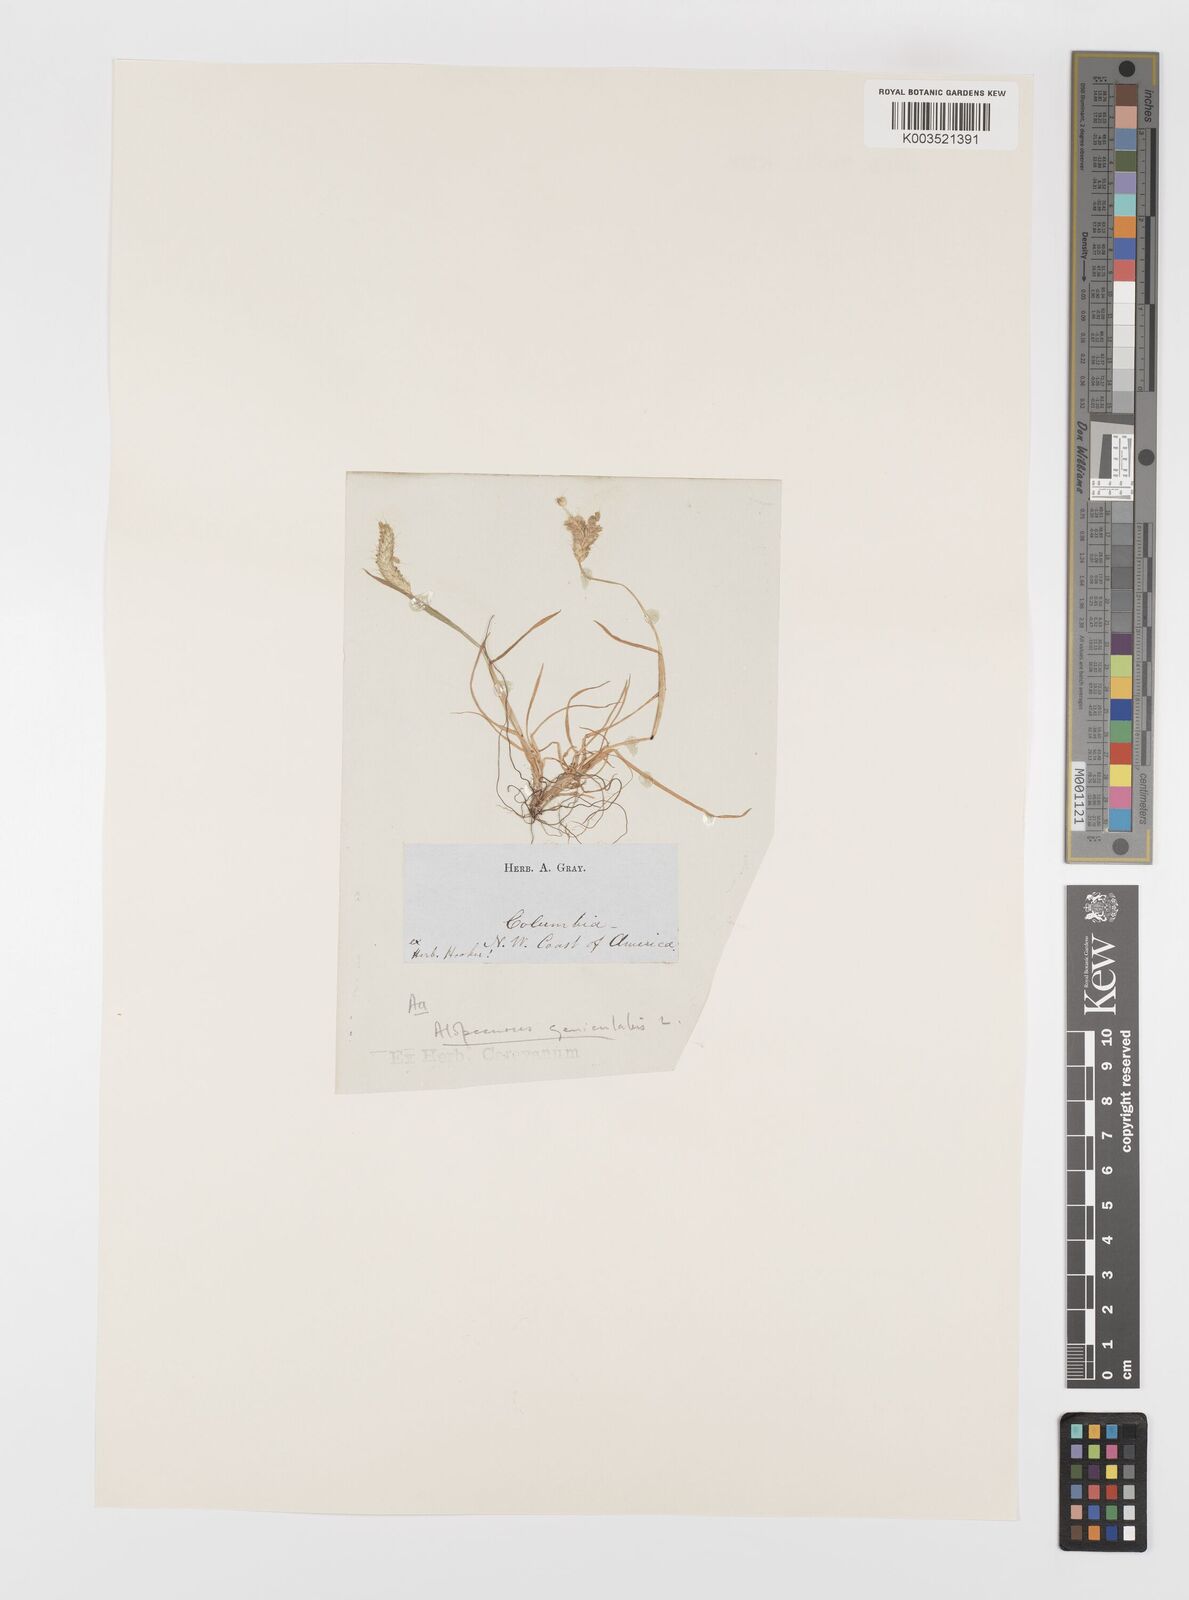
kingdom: Plantae
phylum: Tracheophyta
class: Liliopsida
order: Poales
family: Poaceae
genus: Alopecurus
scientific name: Alopecurus geniculatus
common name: Water foxtail
